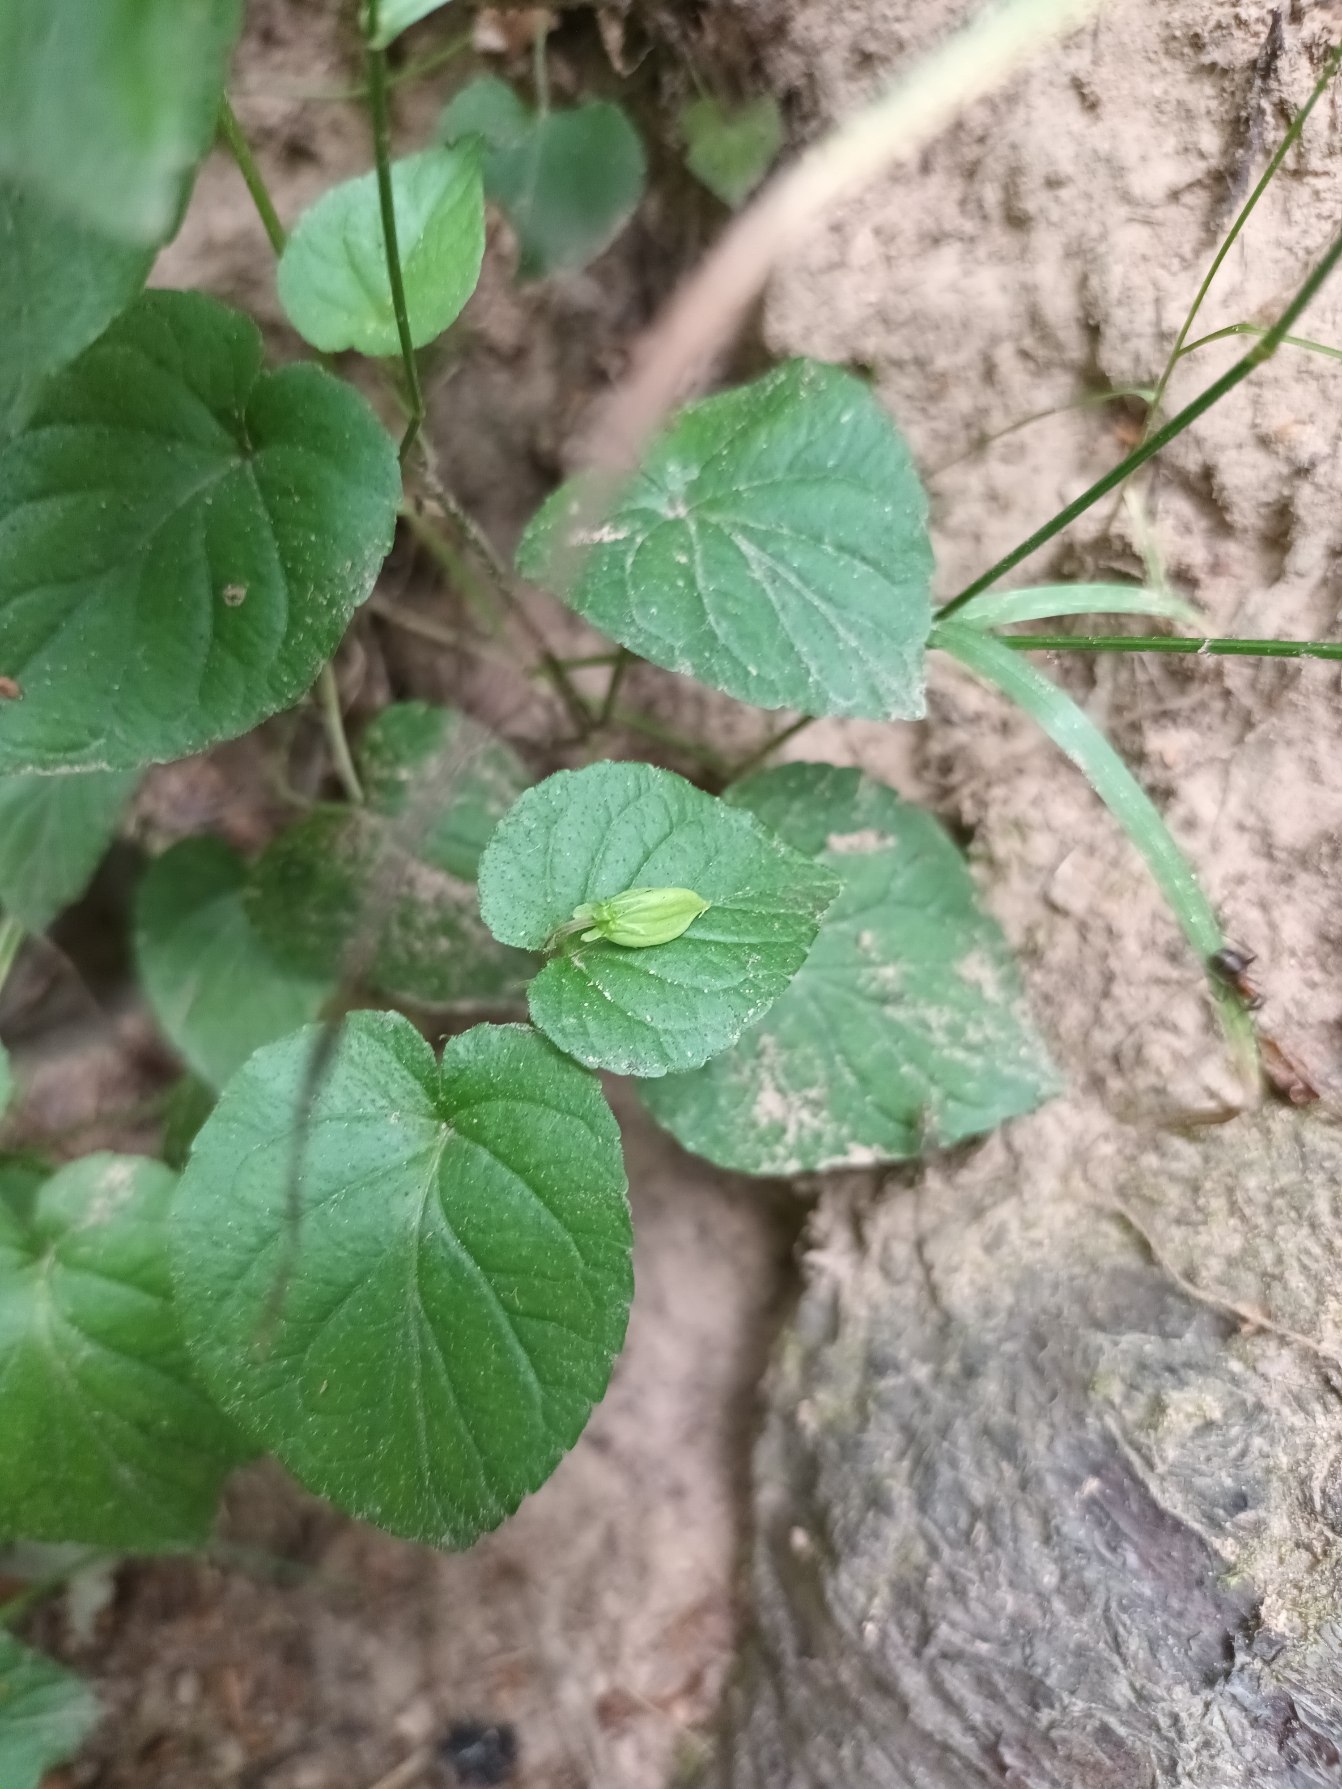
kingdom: Plantae
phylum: Tracheophyta
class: Magnoliopsida
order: Malpighiales
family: Violaceae
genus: Viola
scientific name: Viola riviniana
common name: Krat-viol
